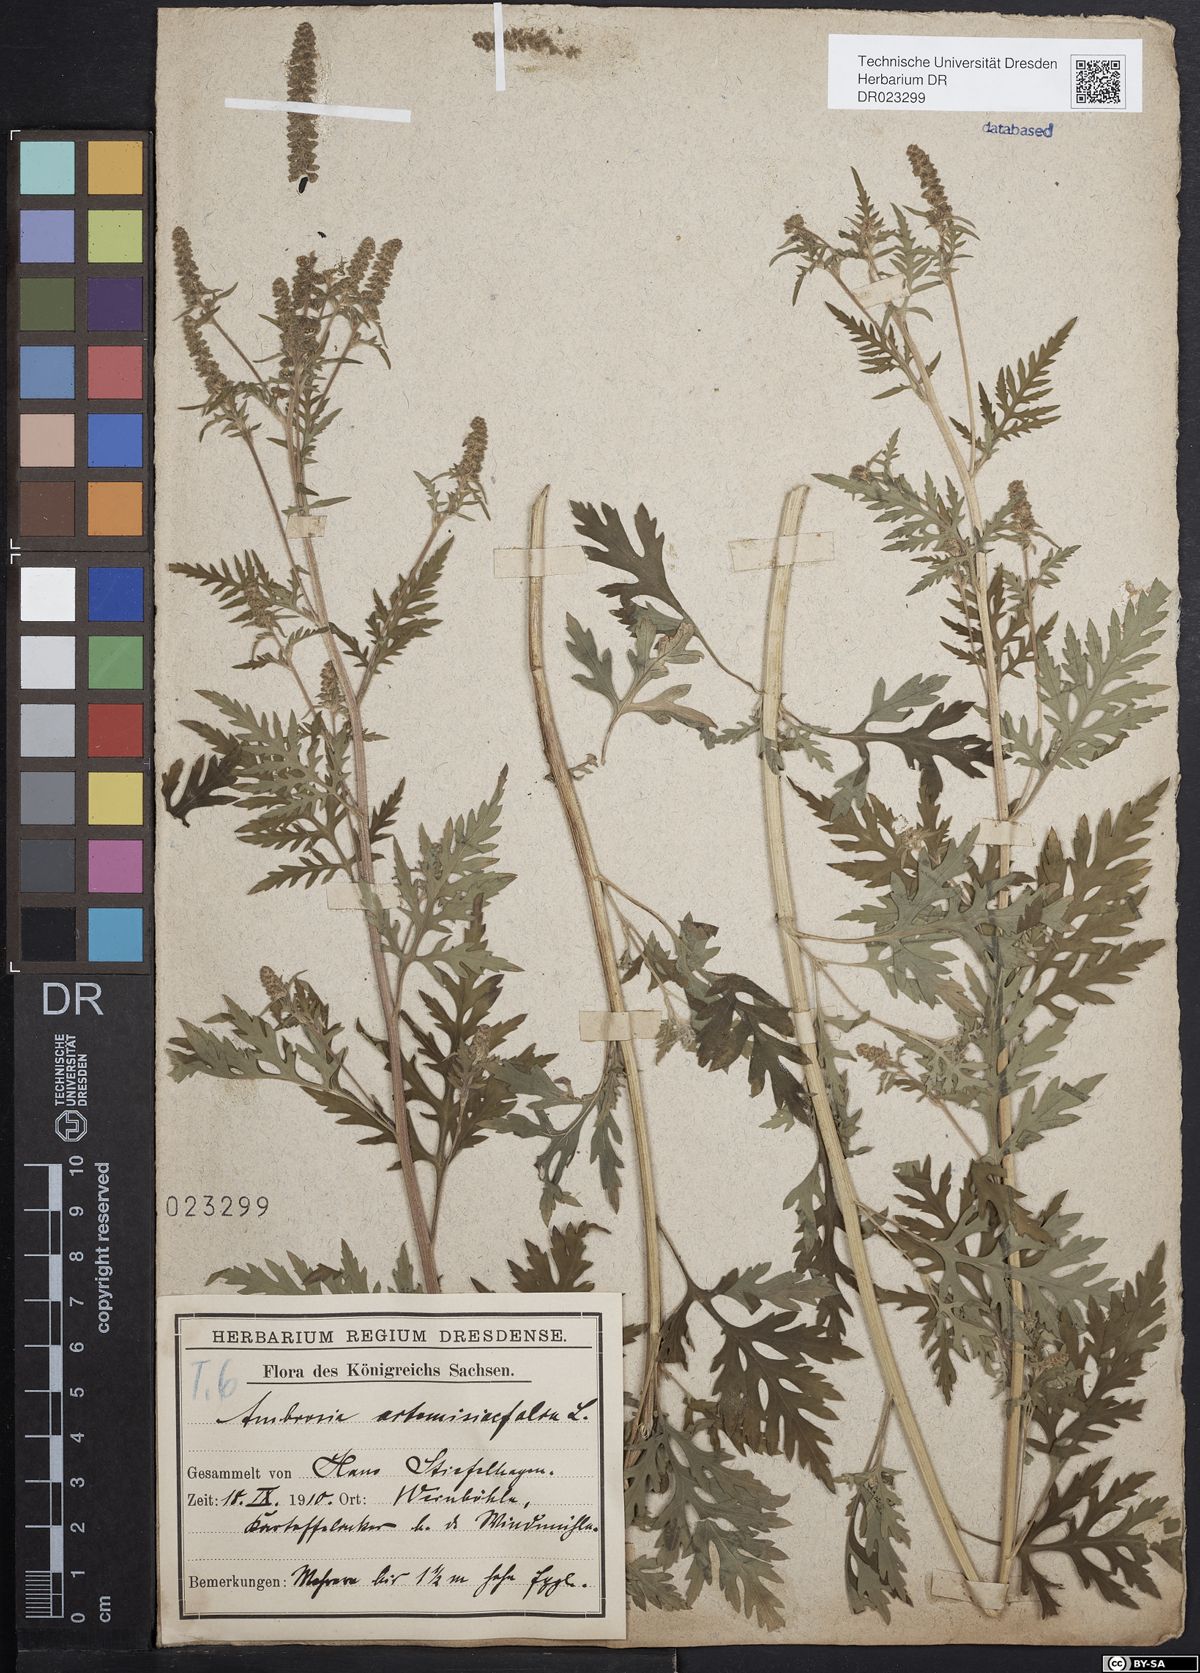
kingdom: Plantae
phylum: Tracheophyta
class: Magnoliopsida
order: Asterales
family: Asteraceae
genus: Ambrosia
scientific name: Ambrosia artemisiifolia
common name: Annual ragweed
